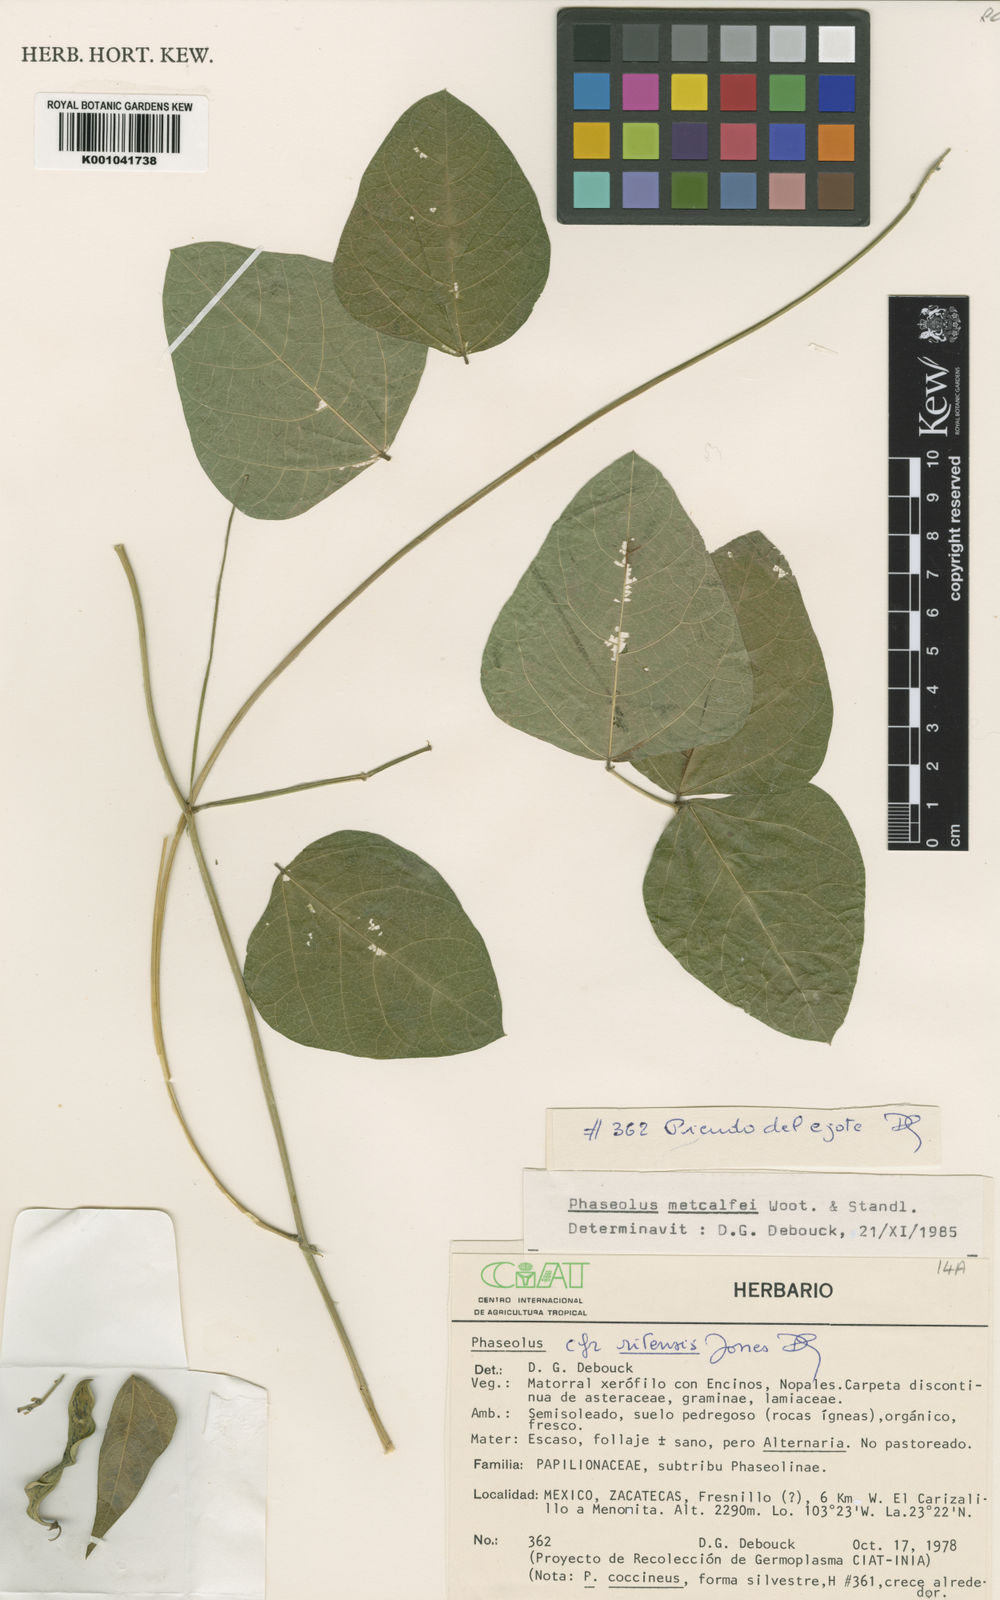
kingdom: Plantae
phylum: Tracheophyta
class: Magnoliopsida
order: Fabales
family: Fabaceae
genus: Phaseolus
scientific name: Phaseolus
